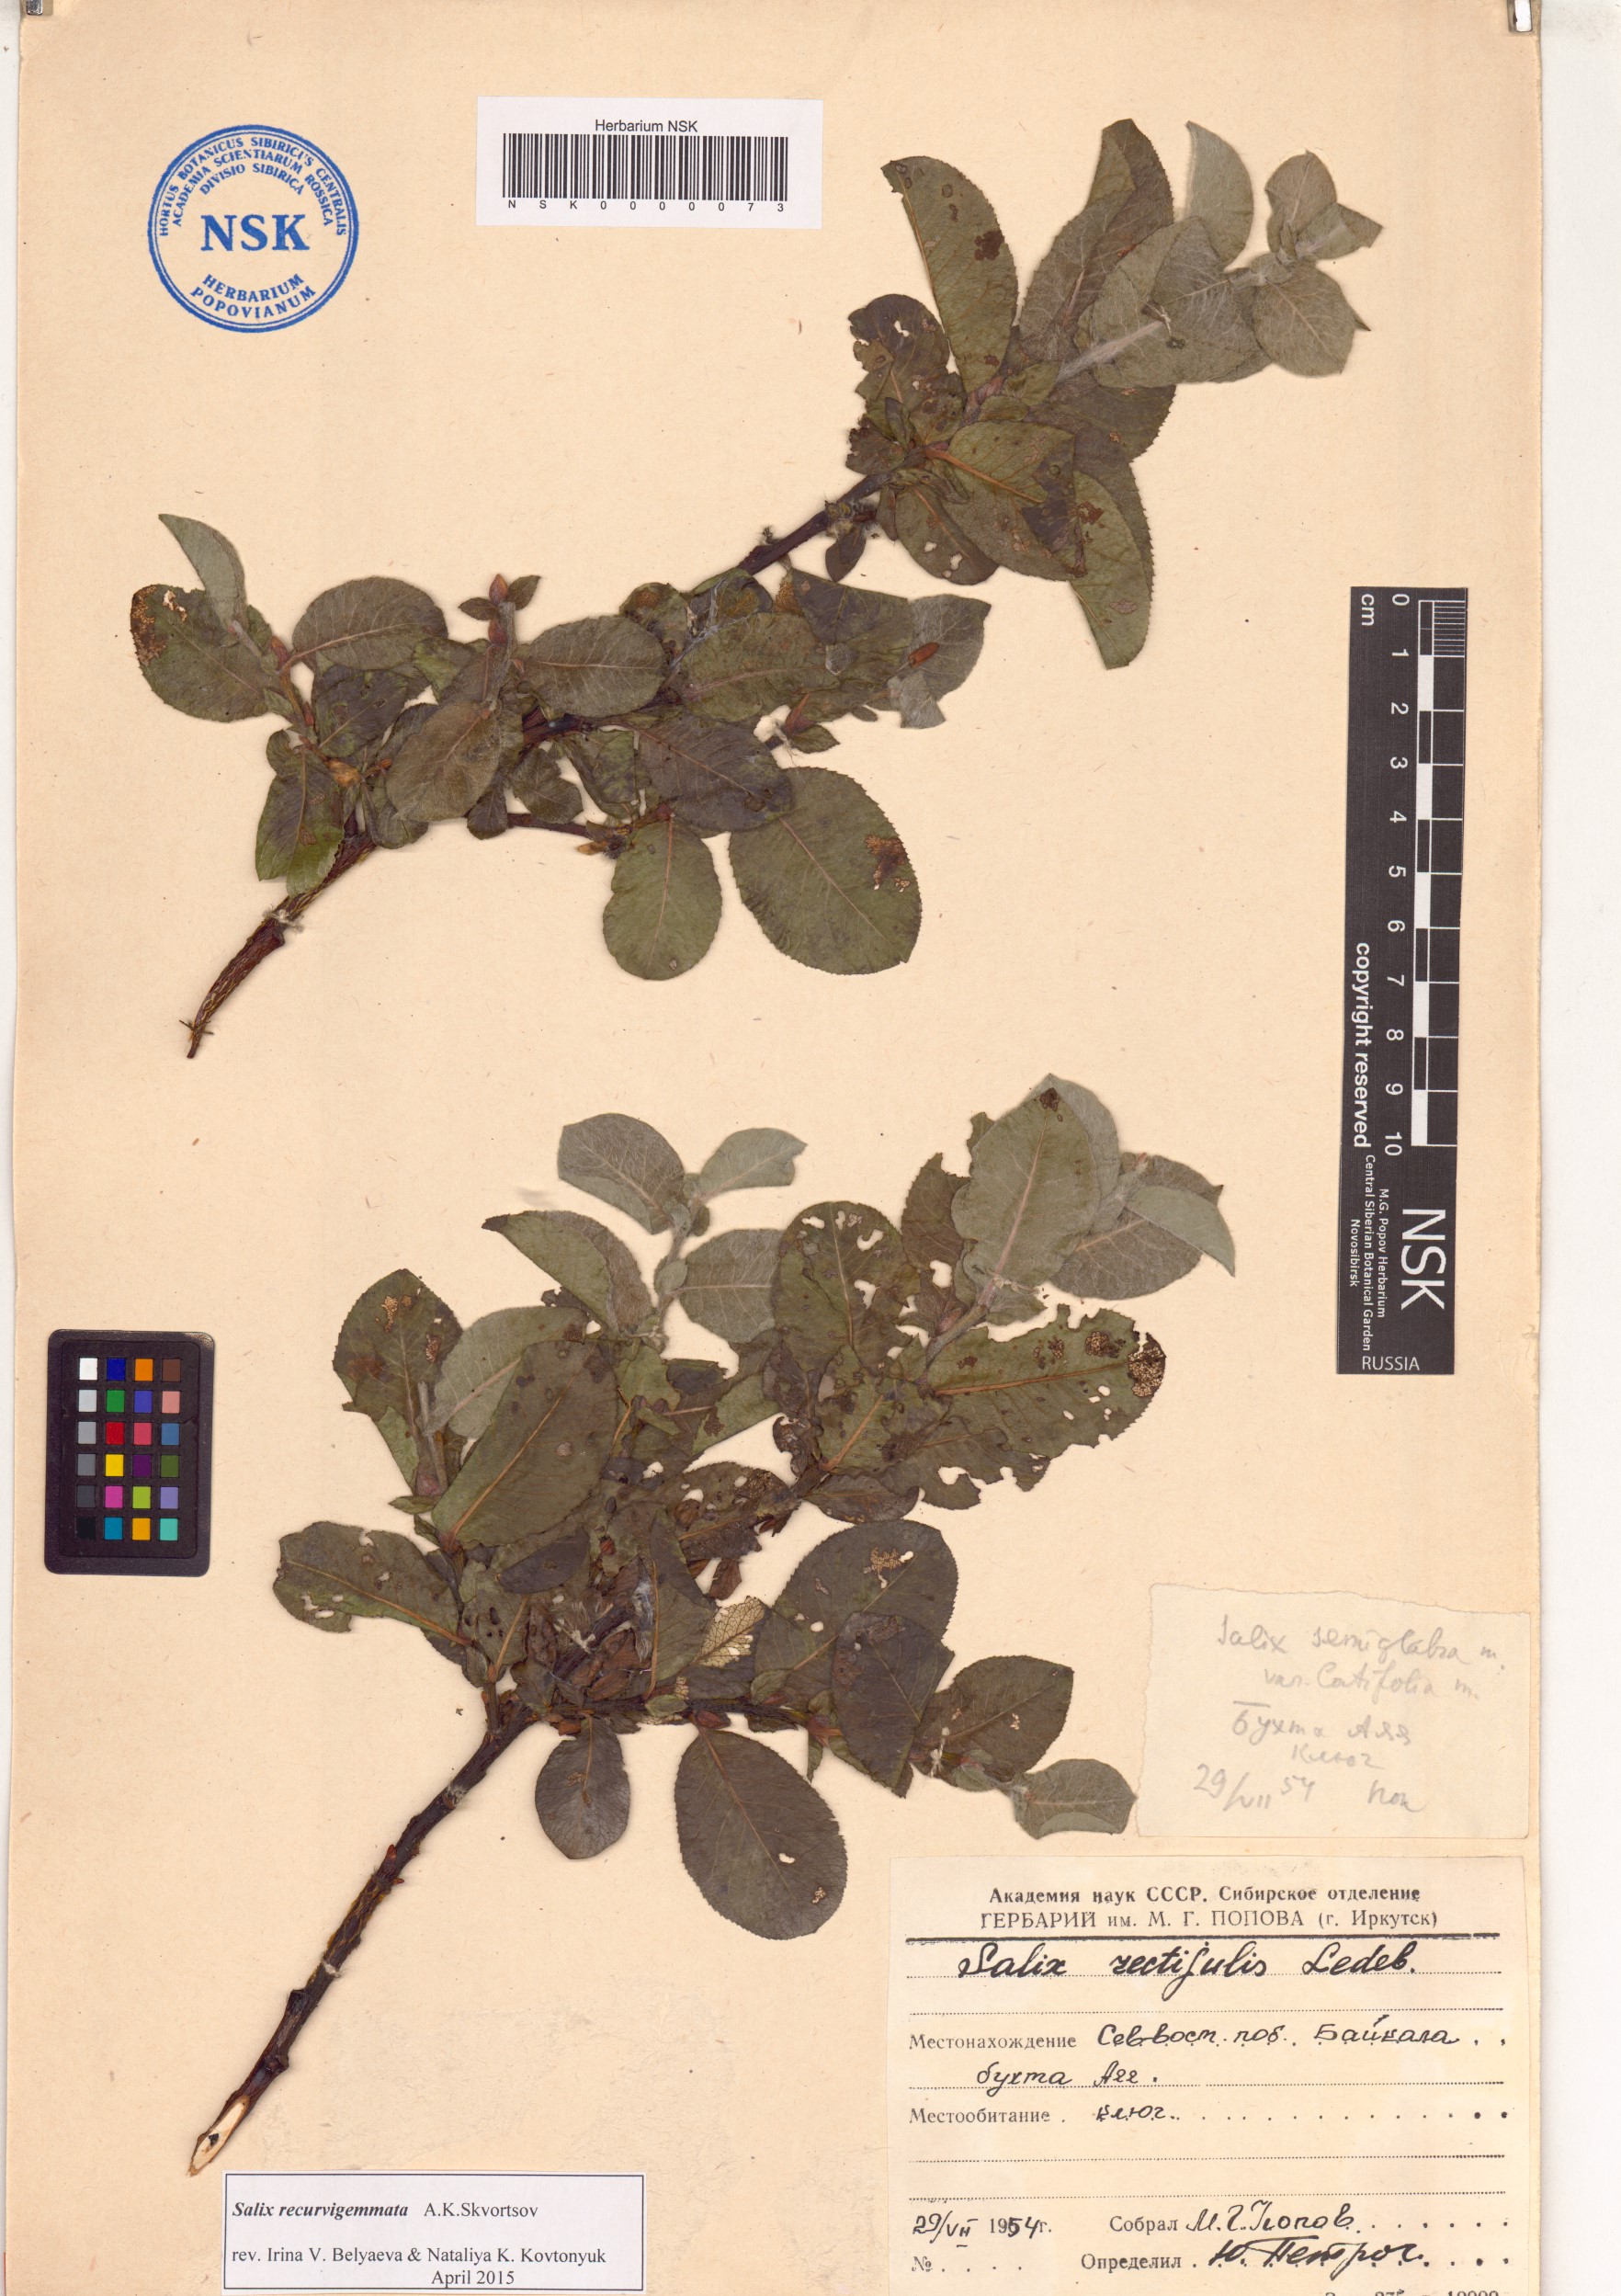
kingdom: Plantae
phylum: Tracheophyta
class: Magnoliopsida
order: Malpighiales
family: Salicaceae
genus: Salix
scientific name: Salix recurvigemmata
